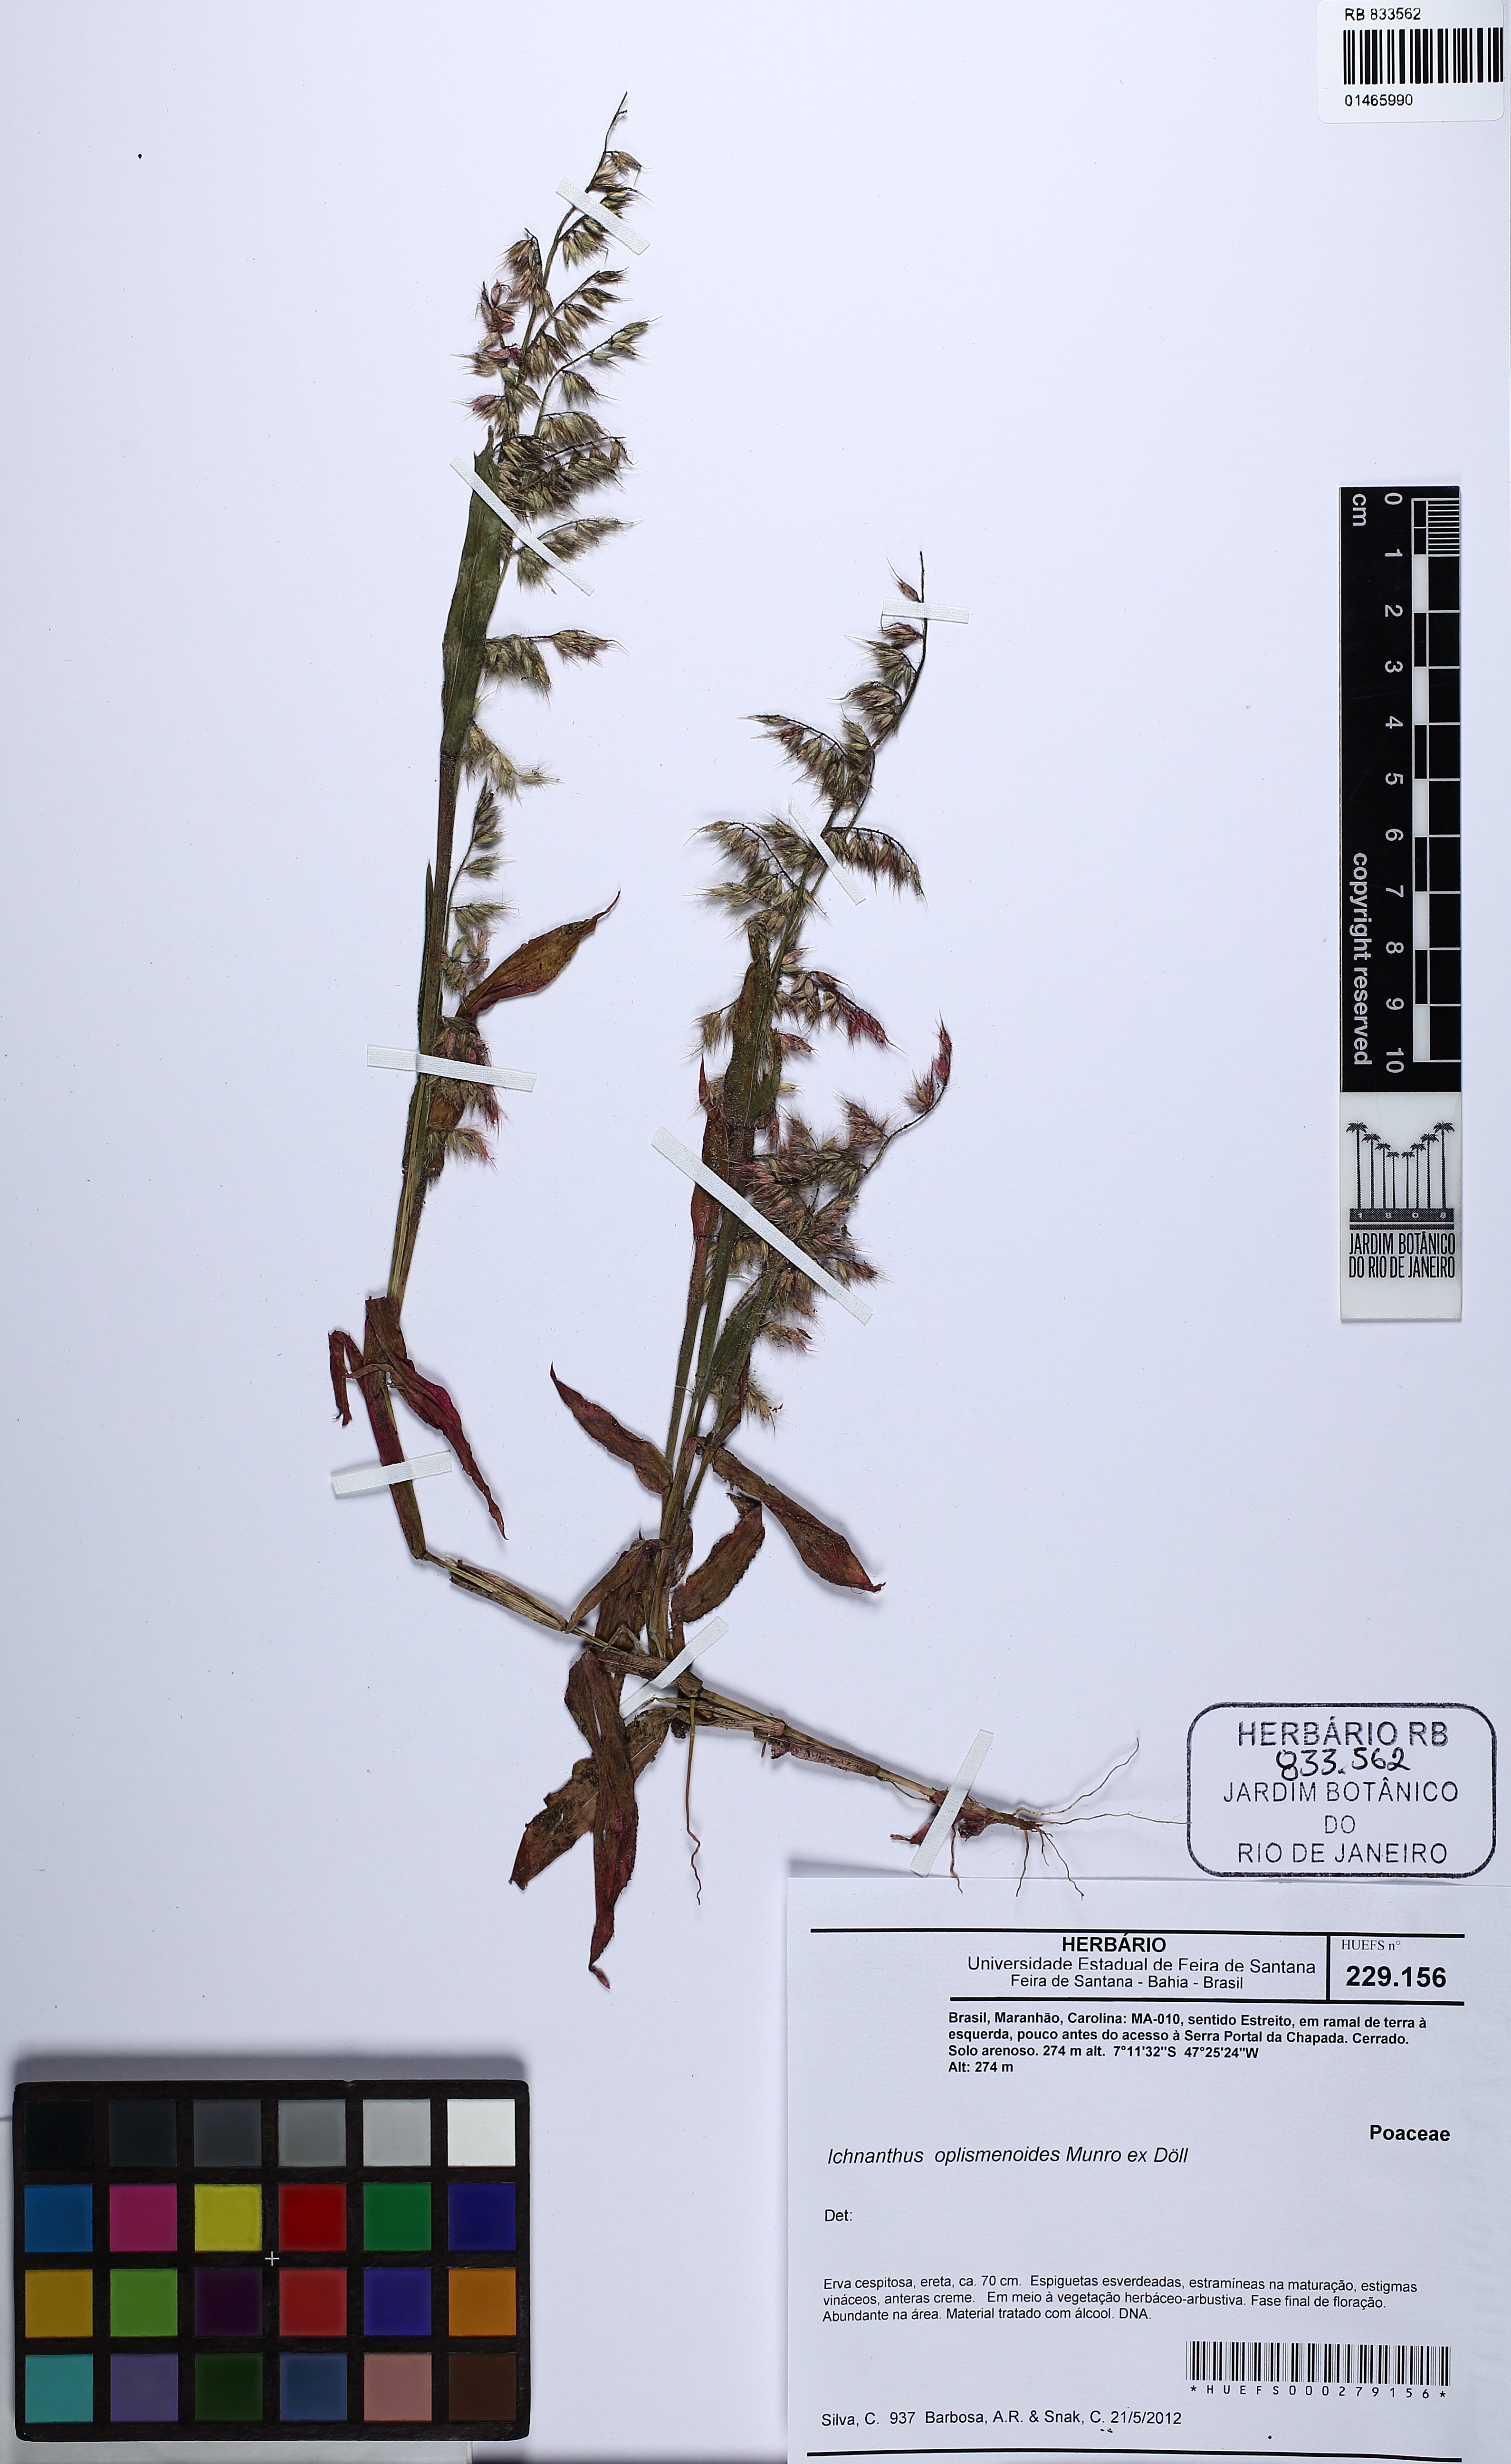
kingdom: Plantae
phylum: Tracheophyta
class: Liliopsida
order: Poales
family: Poaceae
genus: Ichnanthus
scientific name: Ichnanthus oplismenoides
